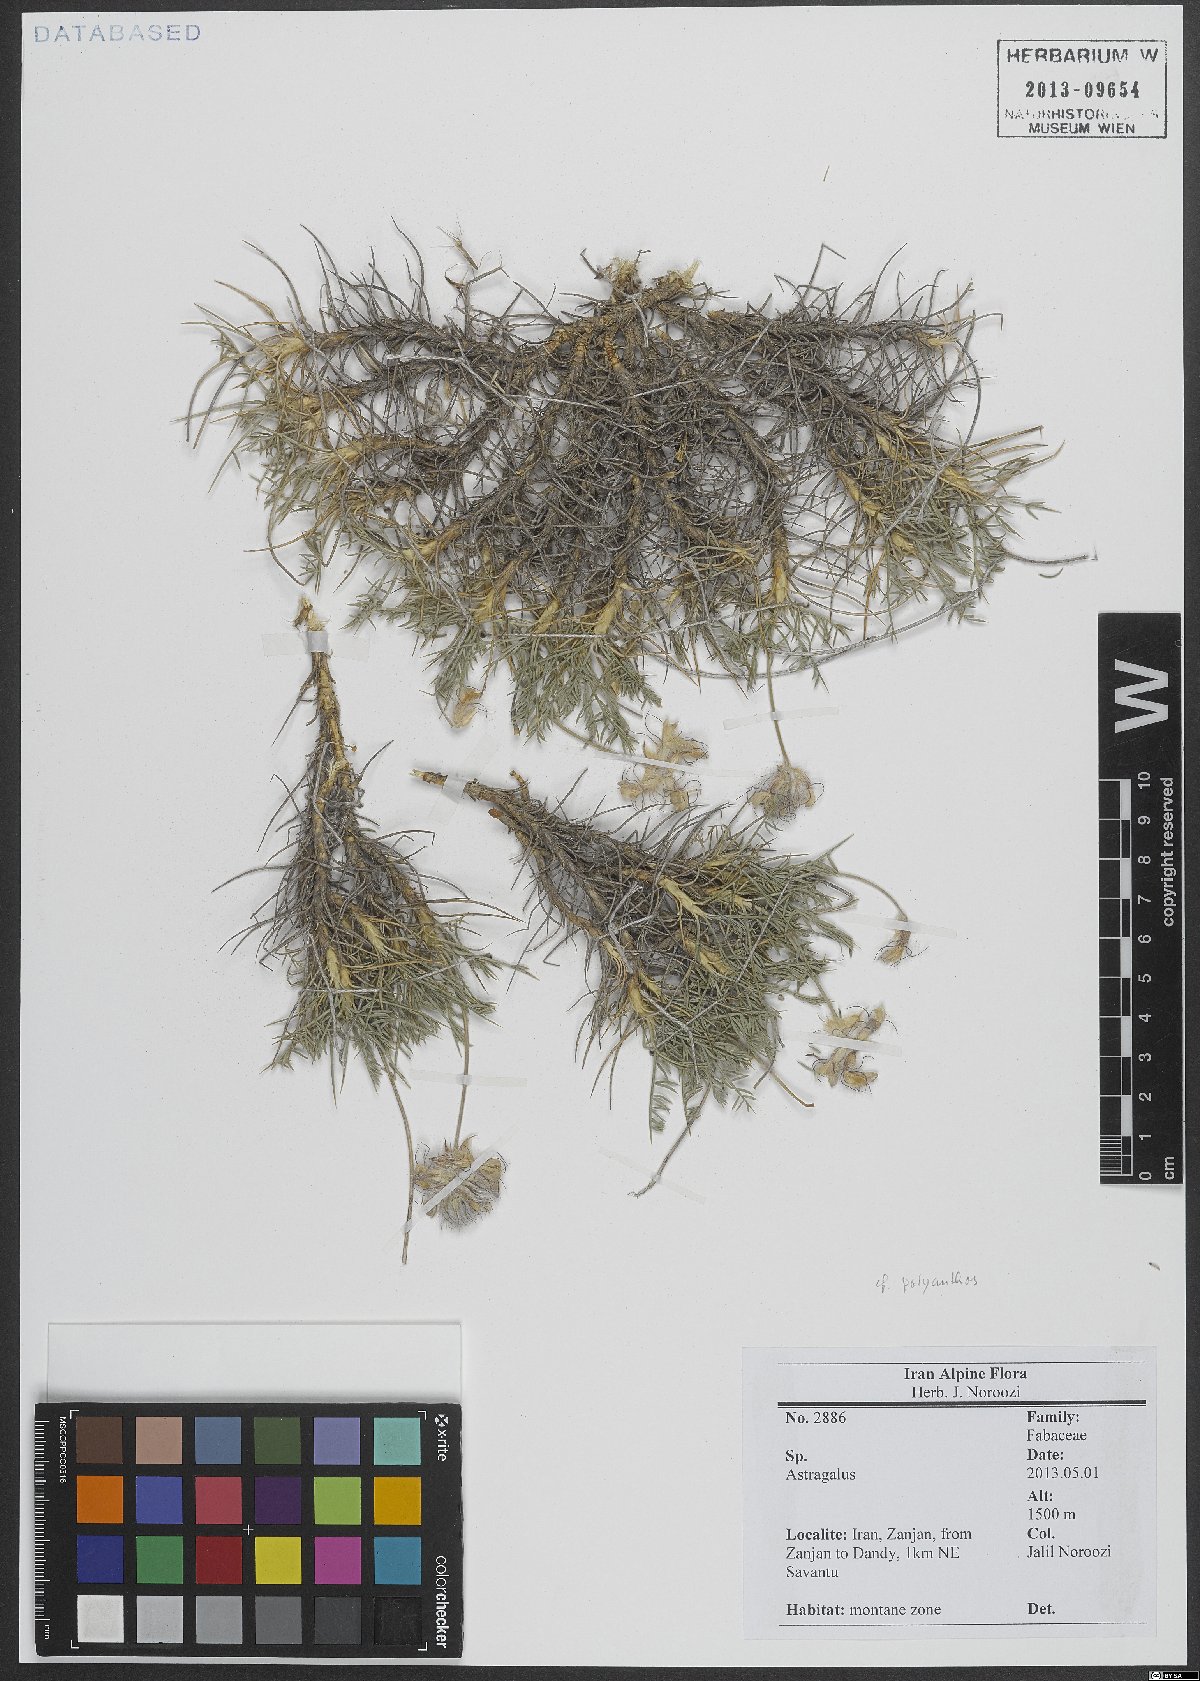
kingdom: Plantae
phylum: Tracheophyta
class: Magnoliopsida
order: Fabales
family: Fabaceae
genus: Astragalus
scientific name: Astragalus
